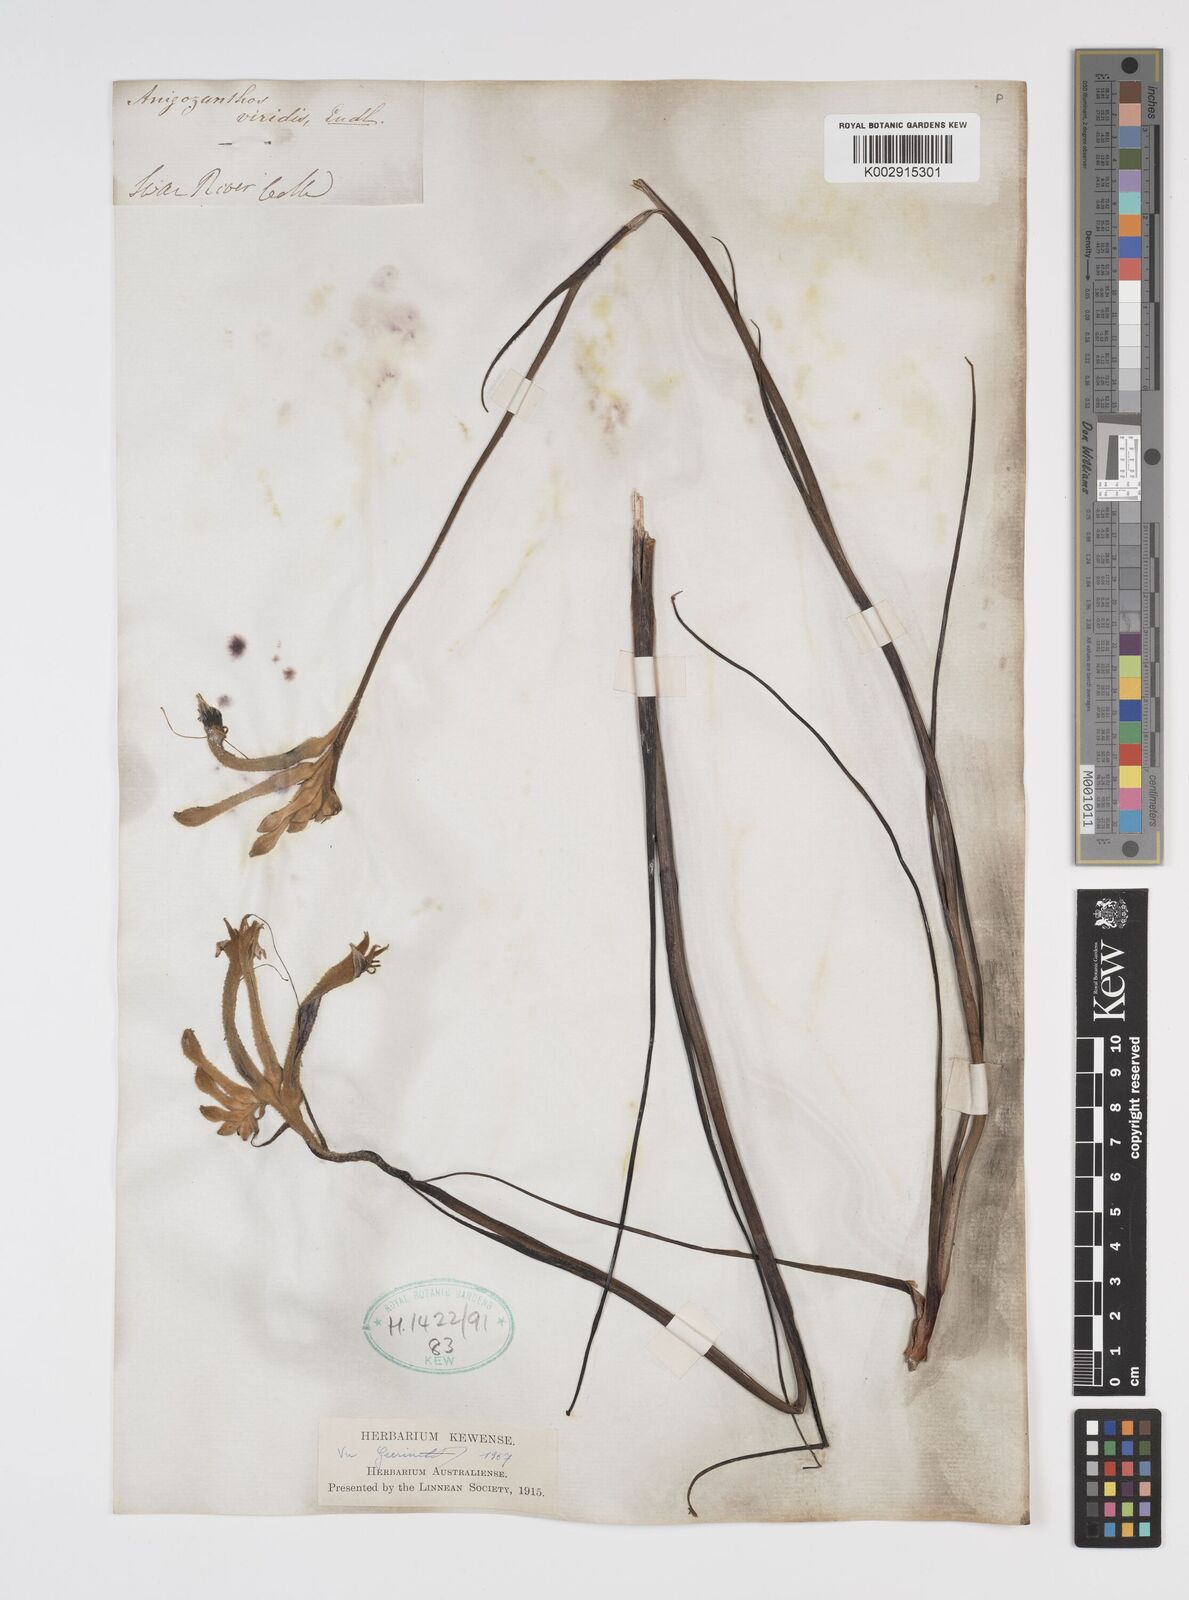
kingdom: Plantae
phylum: Tracheophyta
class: Liliopsida
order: Commelinales
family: Haemodoraceae
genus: Anigozanthos
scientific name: Anigozanthos viridis
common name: Green kangaroo-paw
